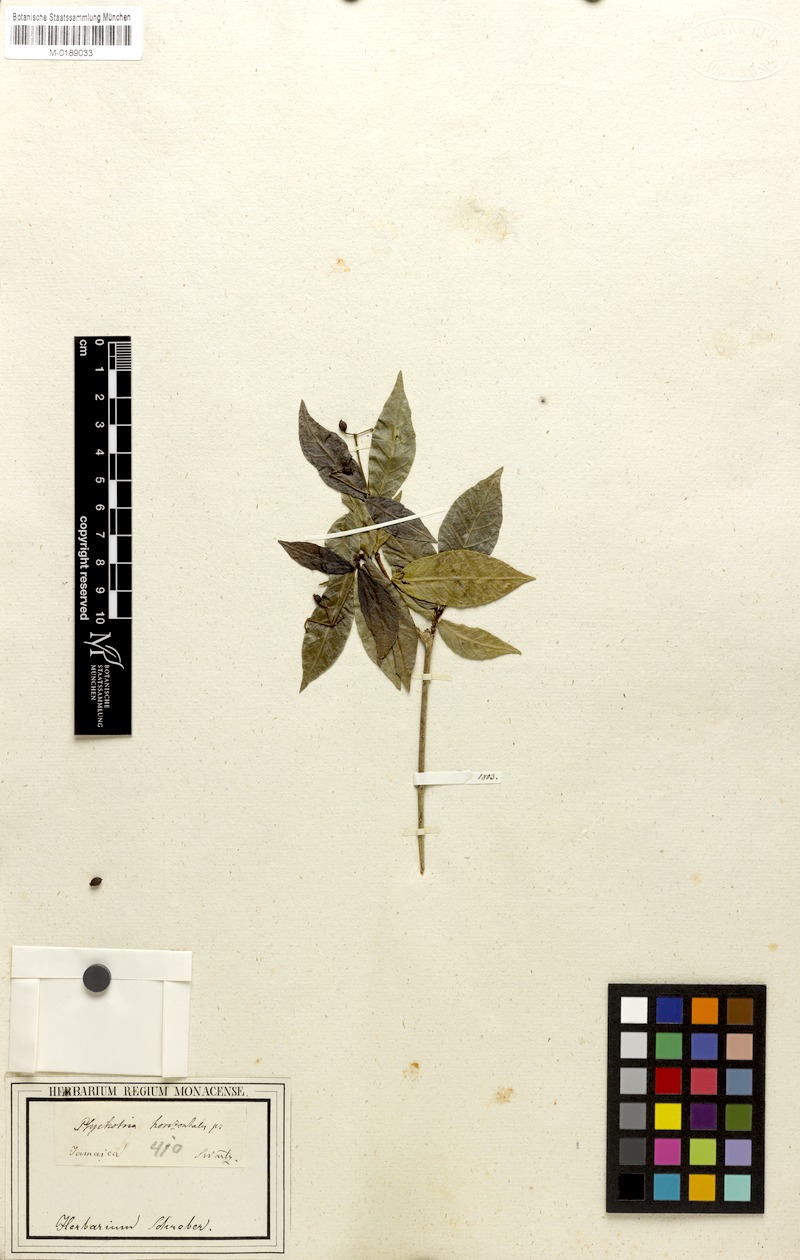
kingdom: Plantae
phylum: Tracheophyta
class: Magnoliopsida
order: Gentianales
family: Rubiaceae
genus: Psychotria
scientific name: Psychotria horizontalis
